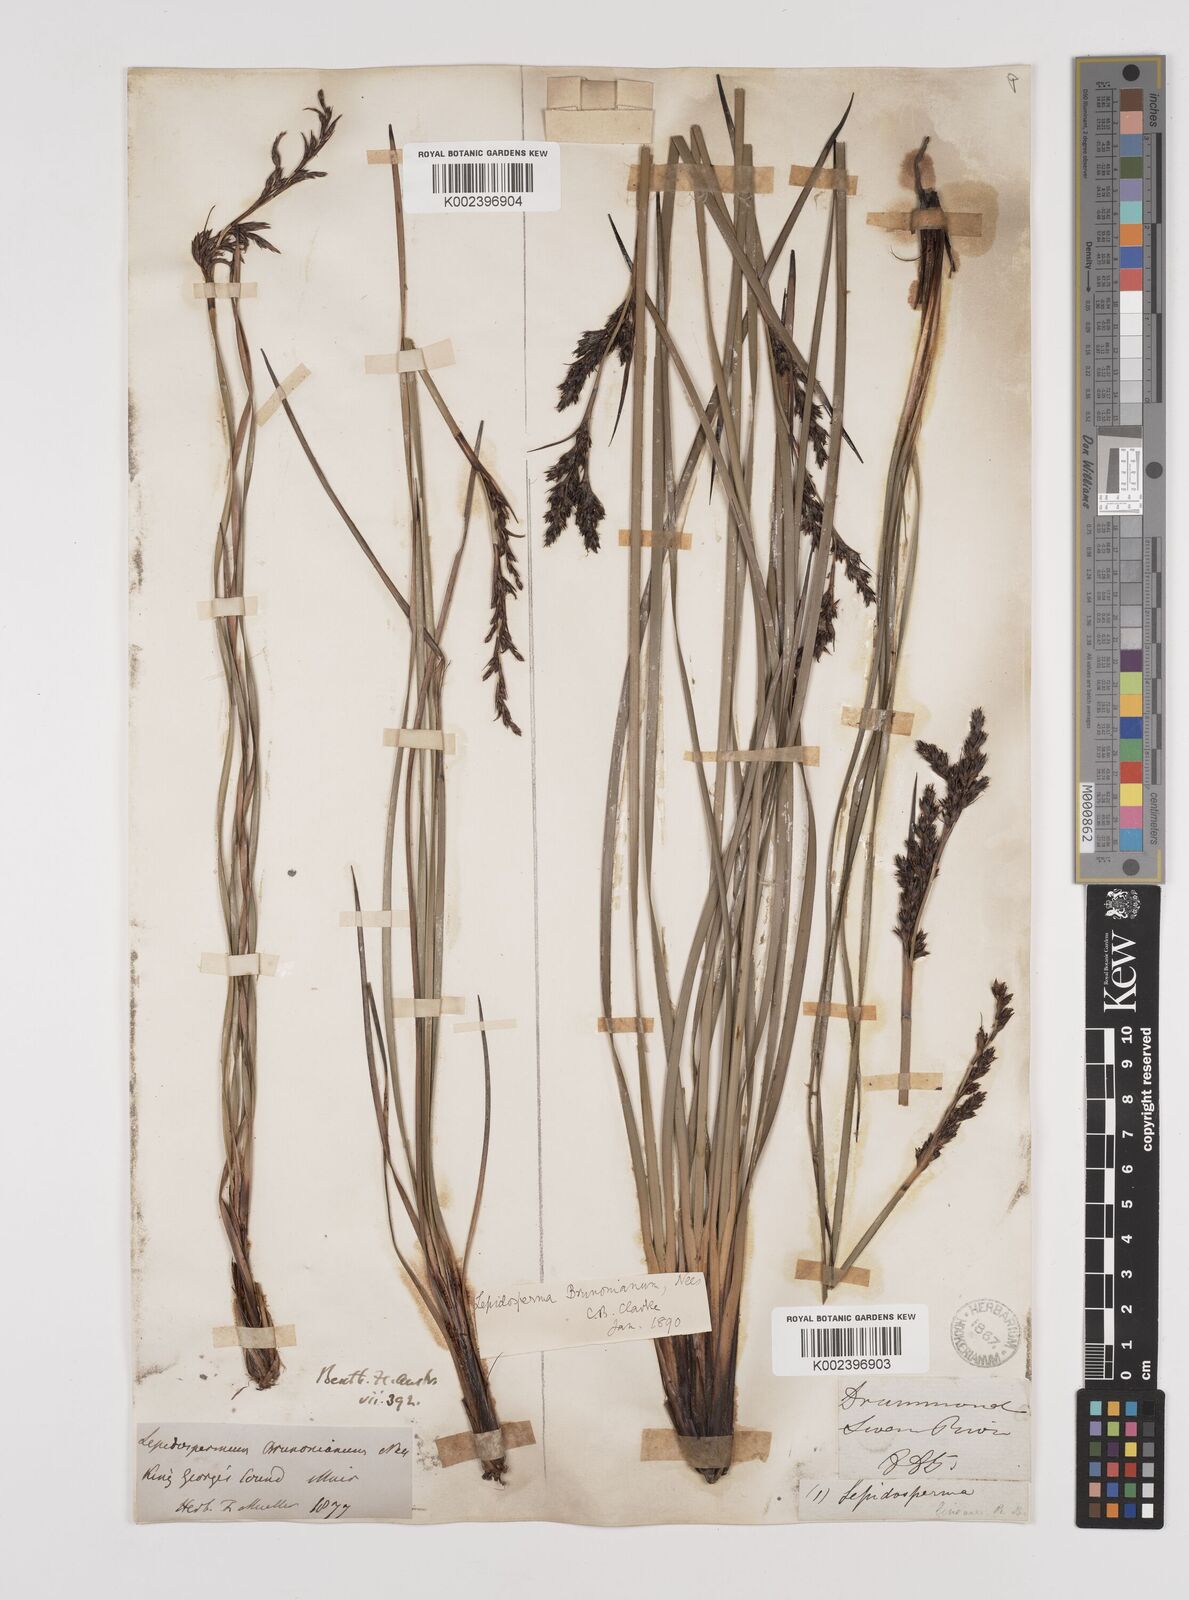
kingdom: Plantae
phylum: Tracheophyta
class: Liliopsida
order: Poales
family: Cyperaceae
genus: Lepidosperma
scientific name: Lepidosperma sieberi
